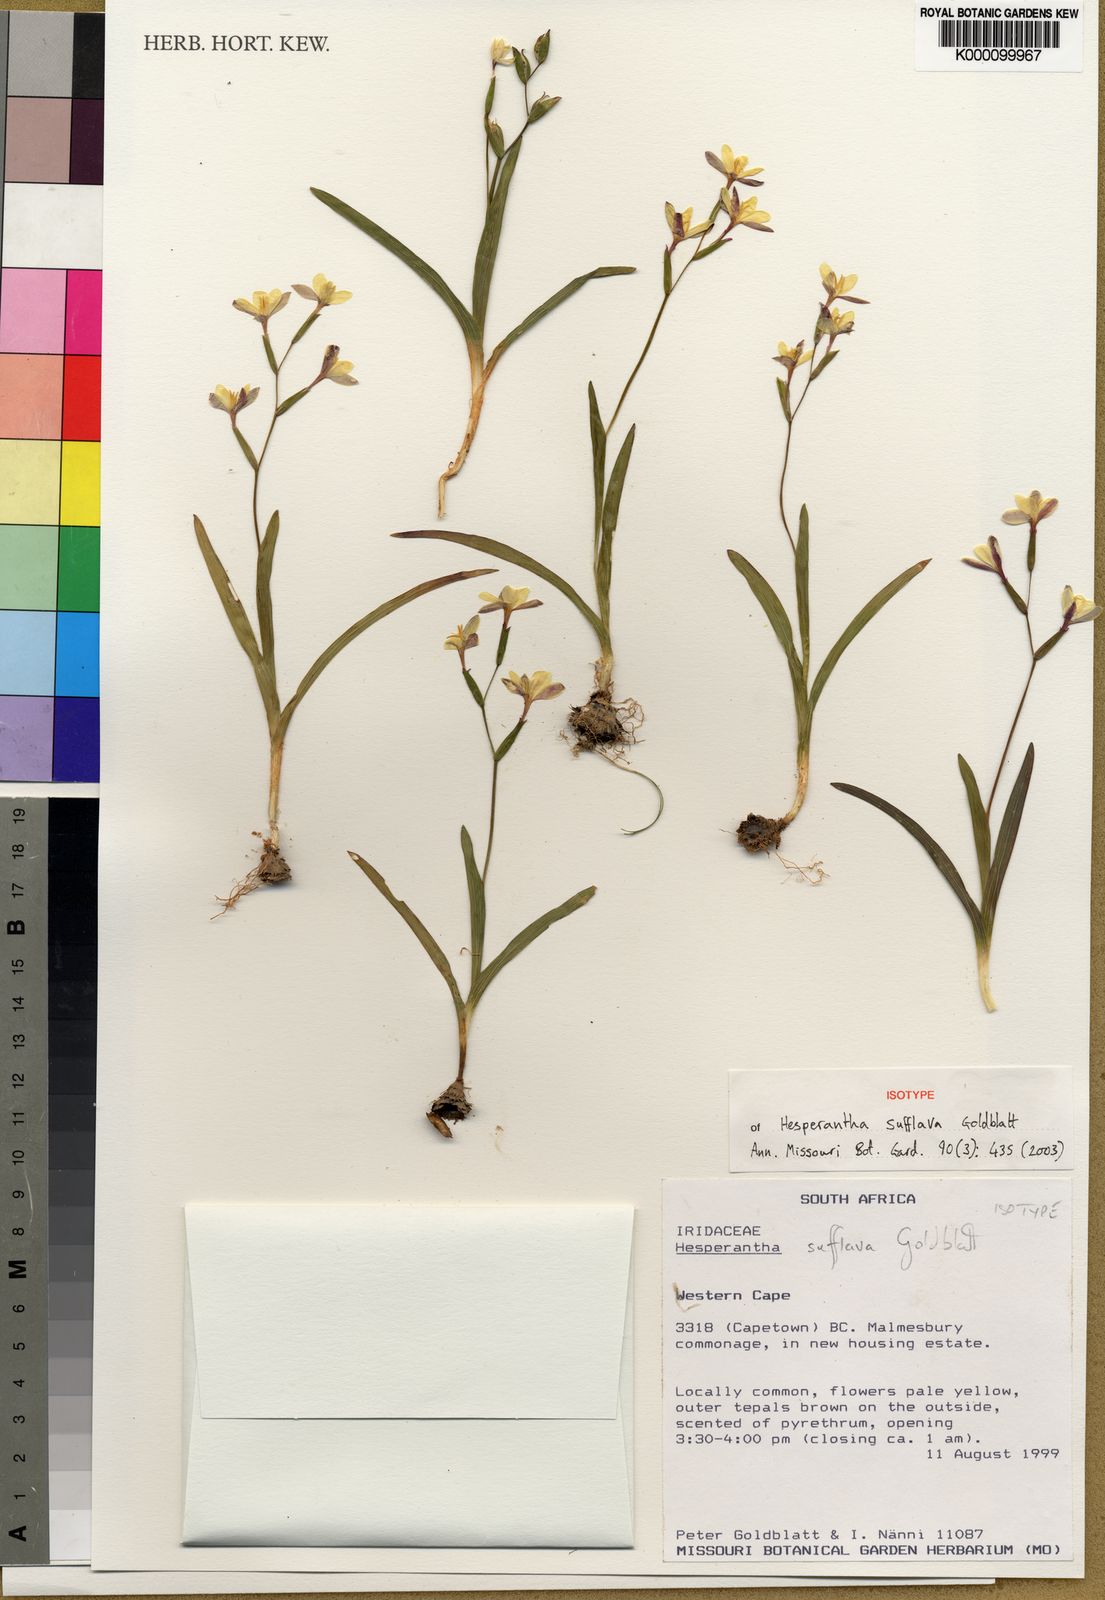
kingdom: Plantae
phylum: Tracheophyta
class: Liliopsida
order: Asparagales
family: Iridaceae
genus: Hesperantha
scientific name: Hesperantha sufflava
